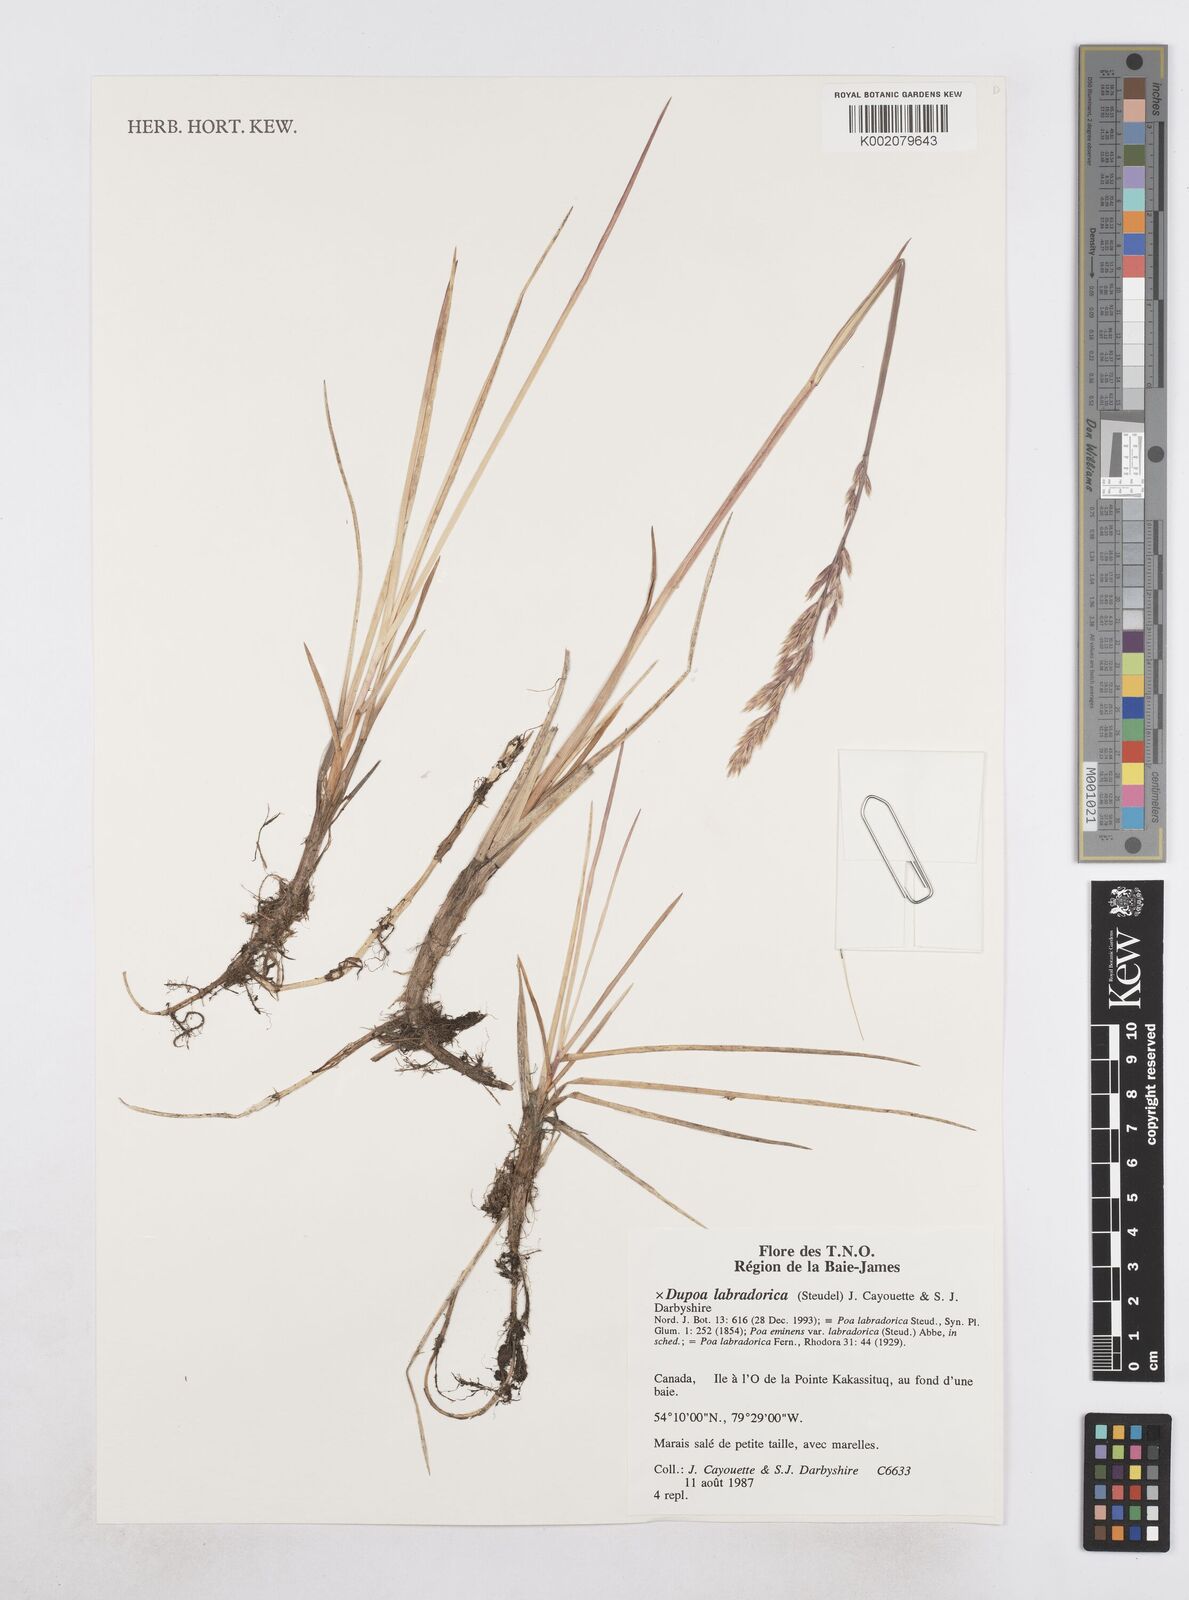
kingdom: Plantae
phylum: Tracheophyta
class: Liliopsida
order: Poales
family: Poaceae
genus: Dupontia
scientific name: Dupontia
